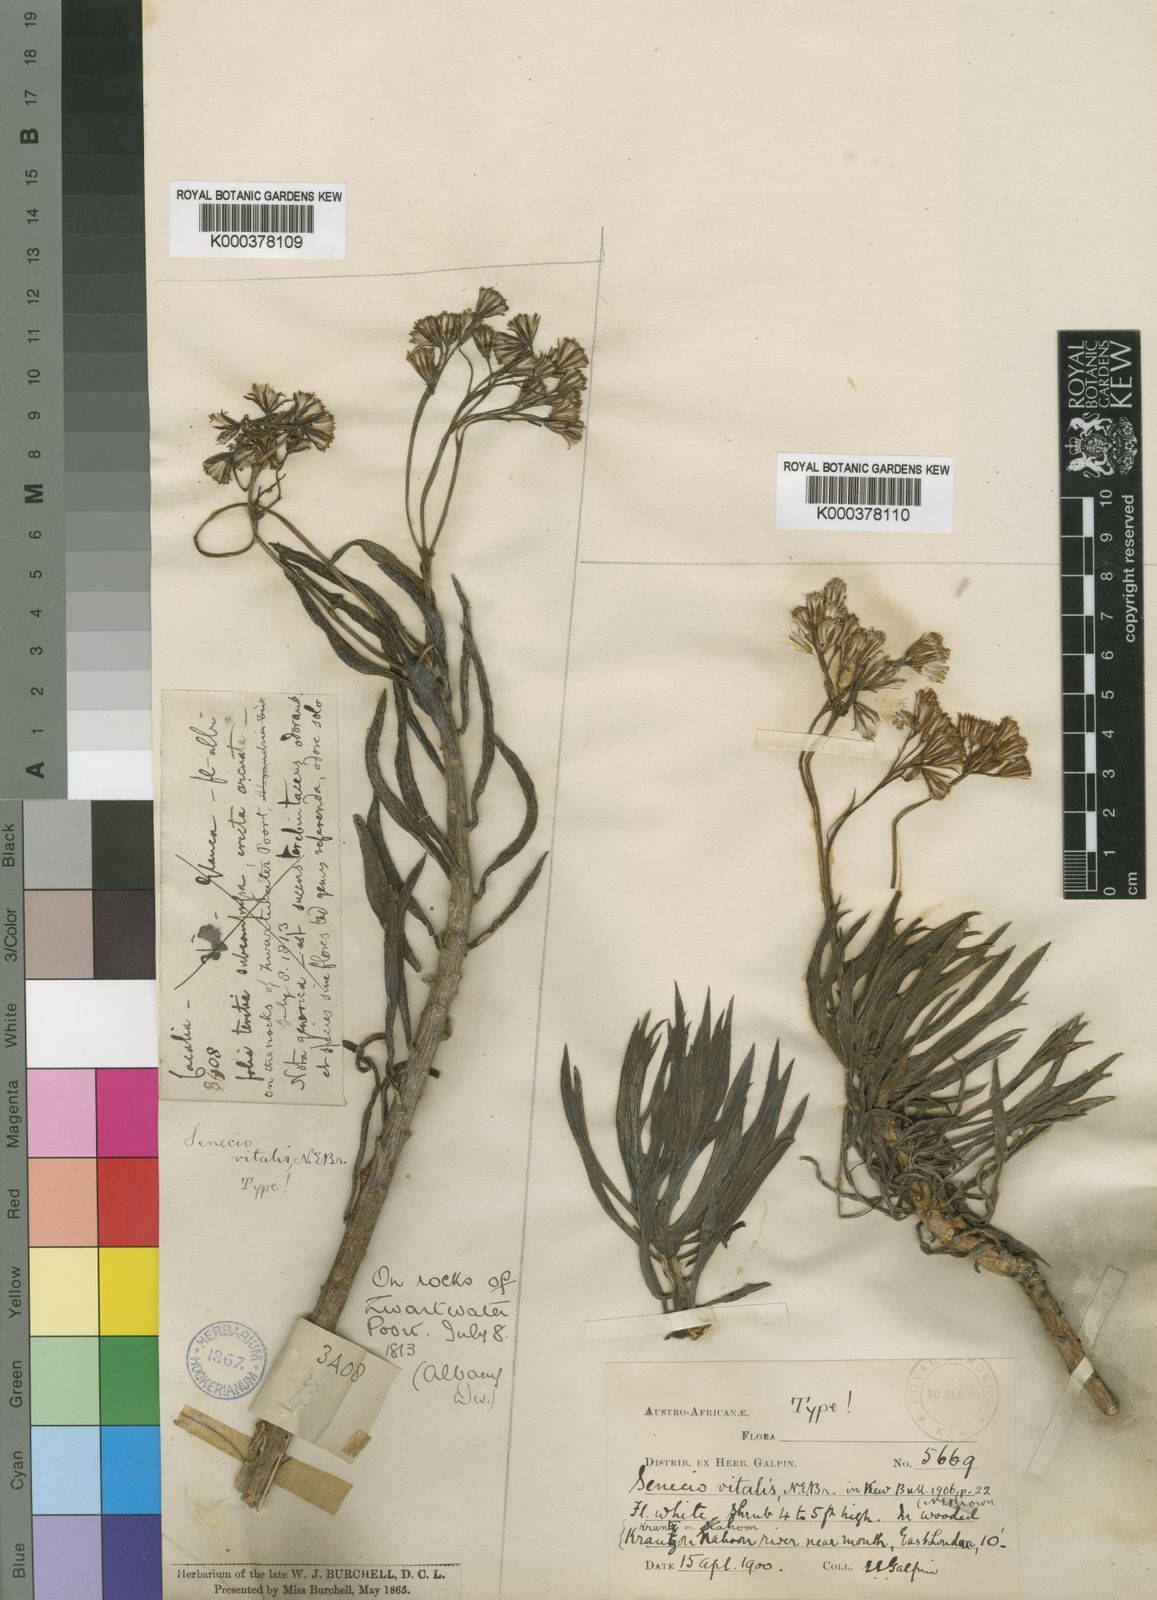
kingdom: Plantae
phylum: Tracheophyta
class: Magnoliopsida
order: Asterales
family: Asteraceae
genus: Curio
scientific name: Curio talinoides
